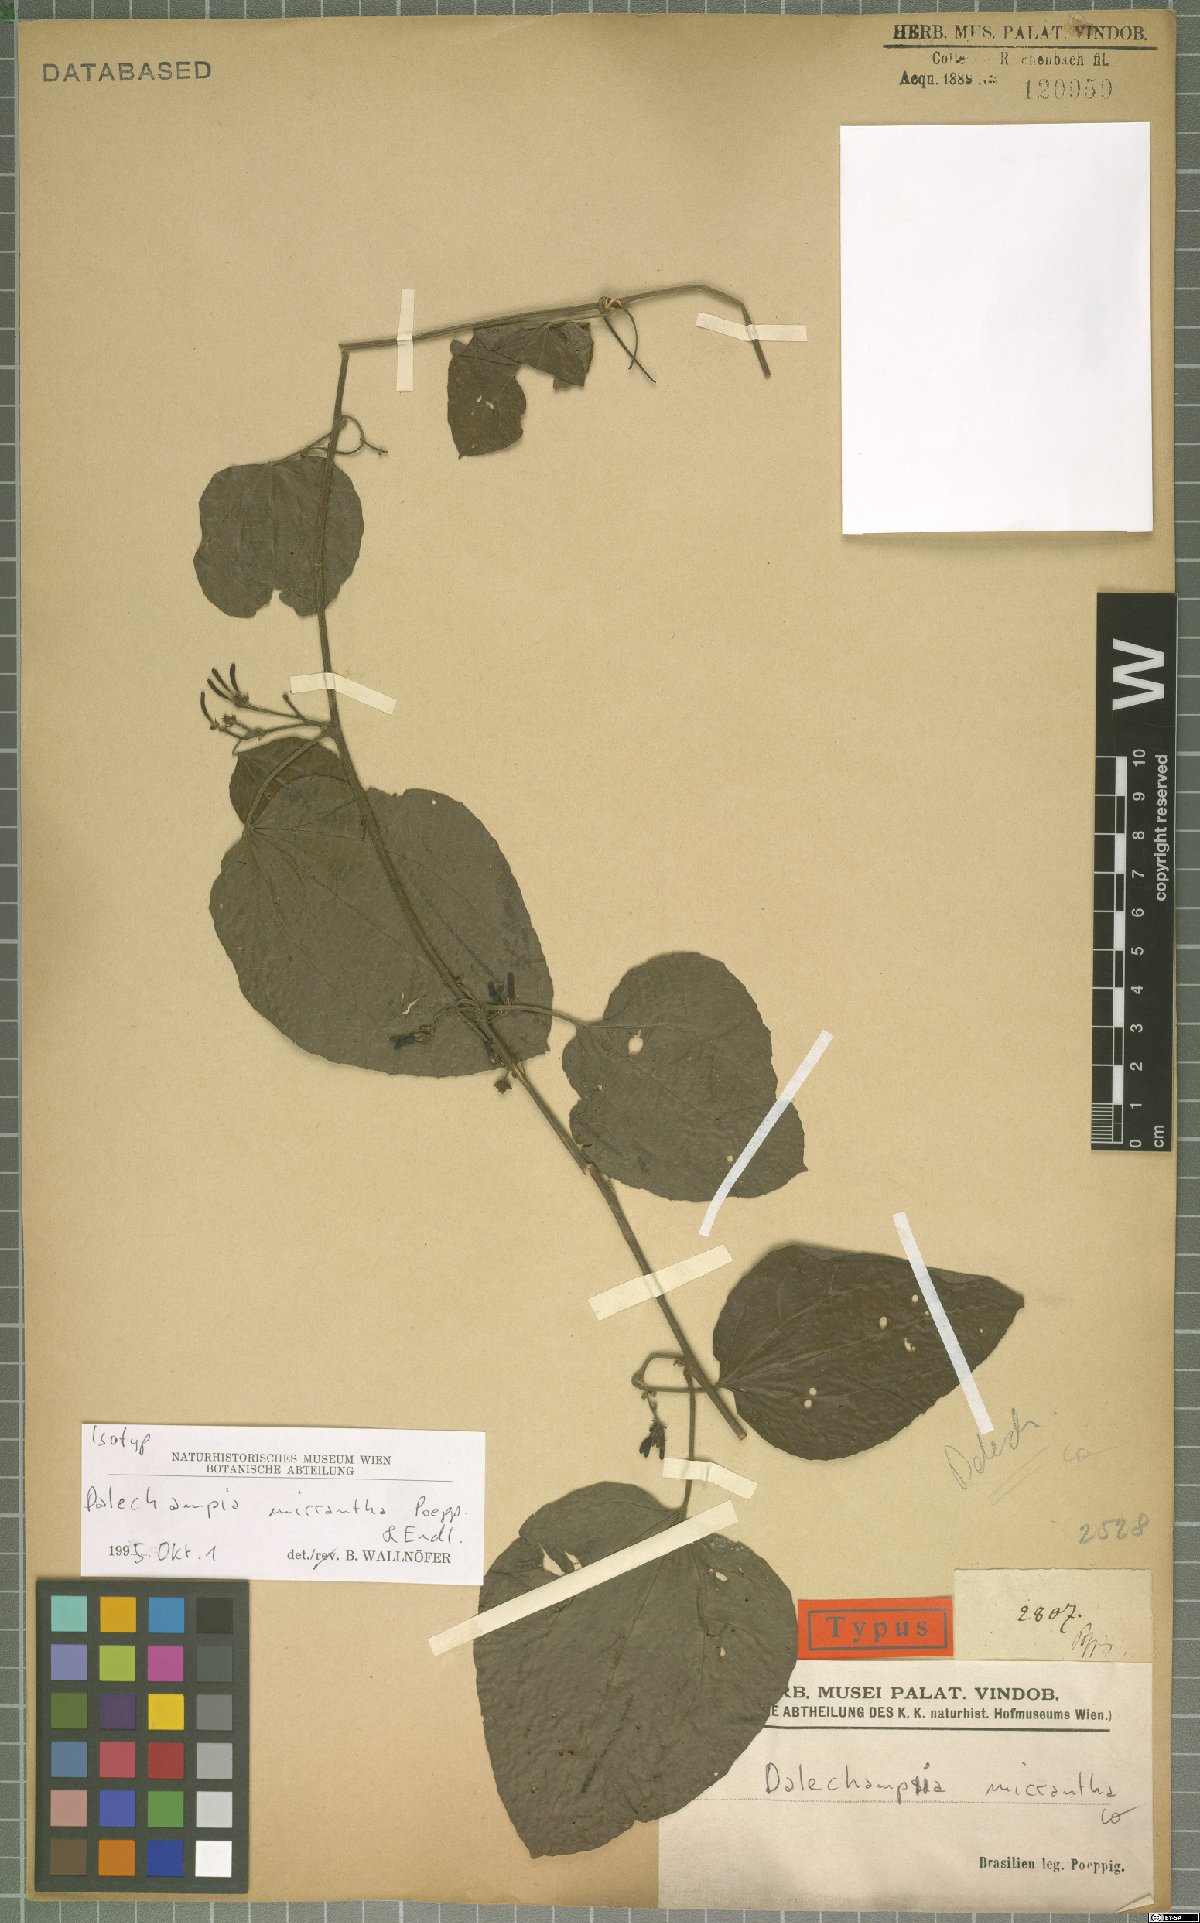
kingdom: Plantae
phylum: Tracheophyta
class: Magnoliopsida
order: Malpighiales
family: Euphorbiaceae
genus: Dalechampia
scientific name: Dalechampia micrantha
